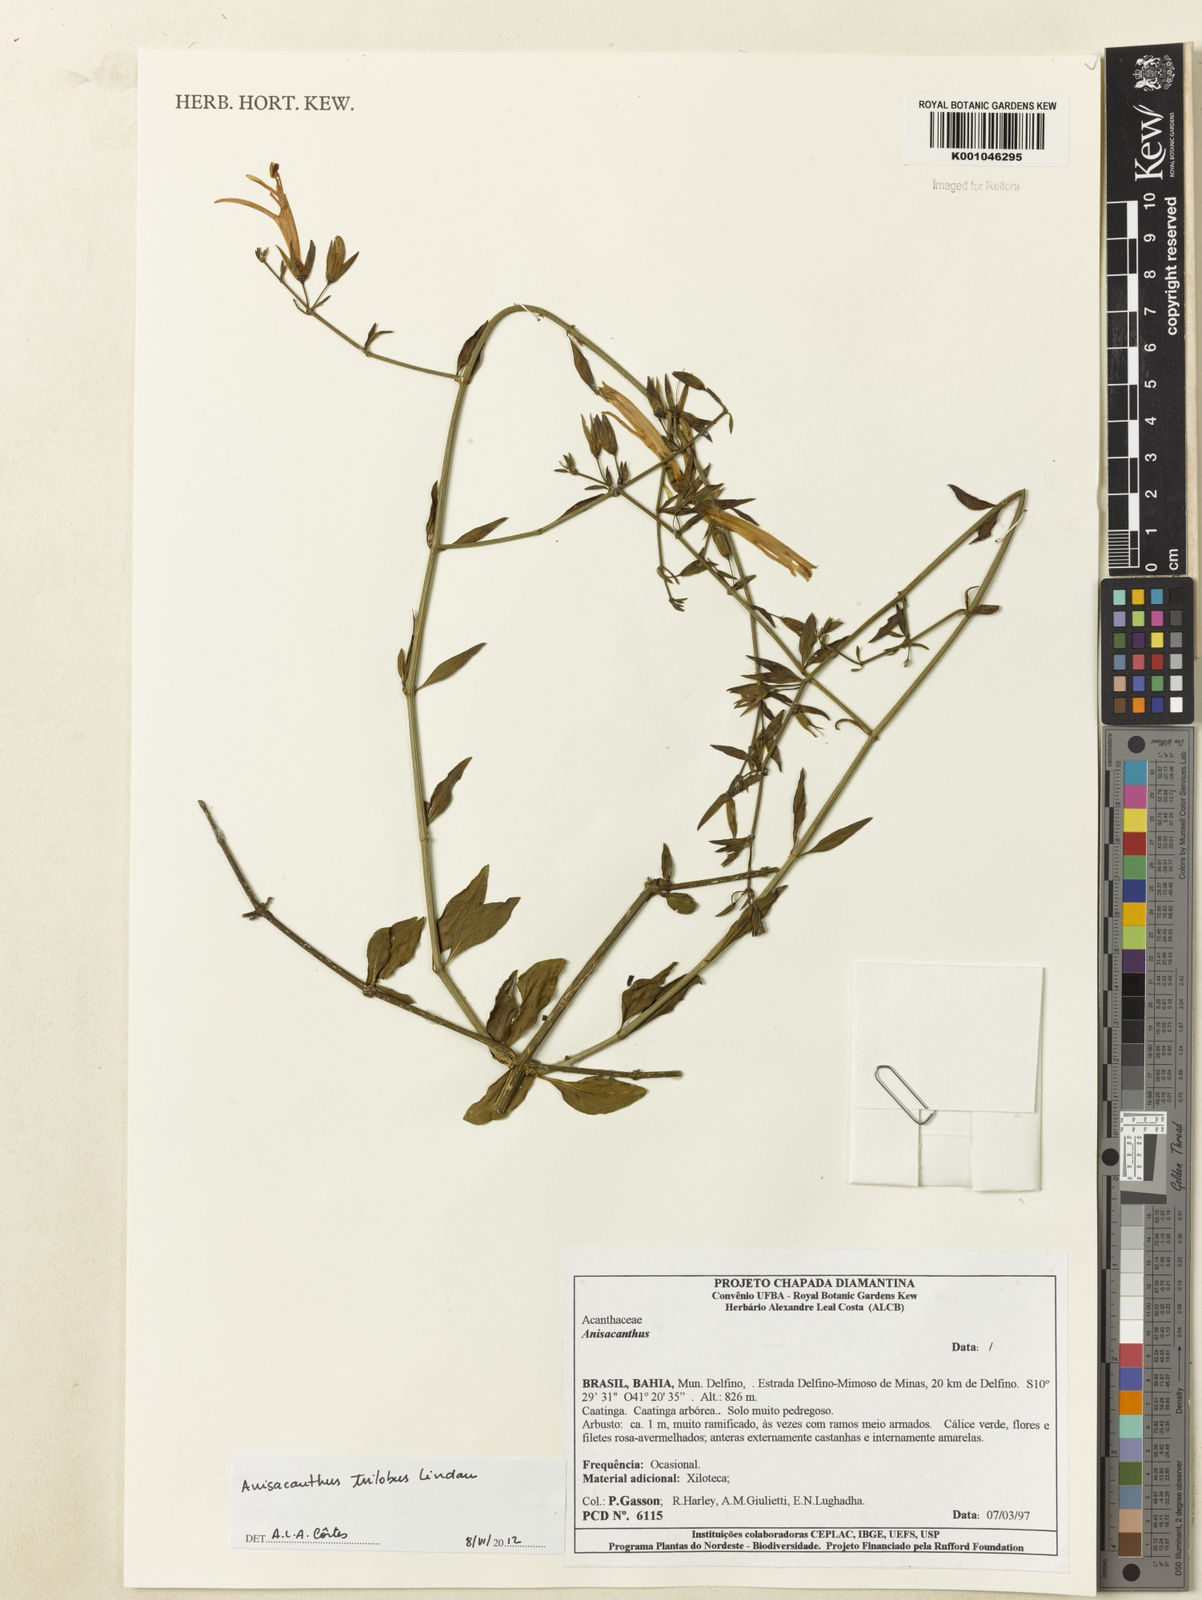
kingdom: Plantae
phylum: Tracheophyta
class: Magnoliopsida
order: Lamiales
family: Acanthaceae
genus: Justicia
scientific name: Justicia triloba
